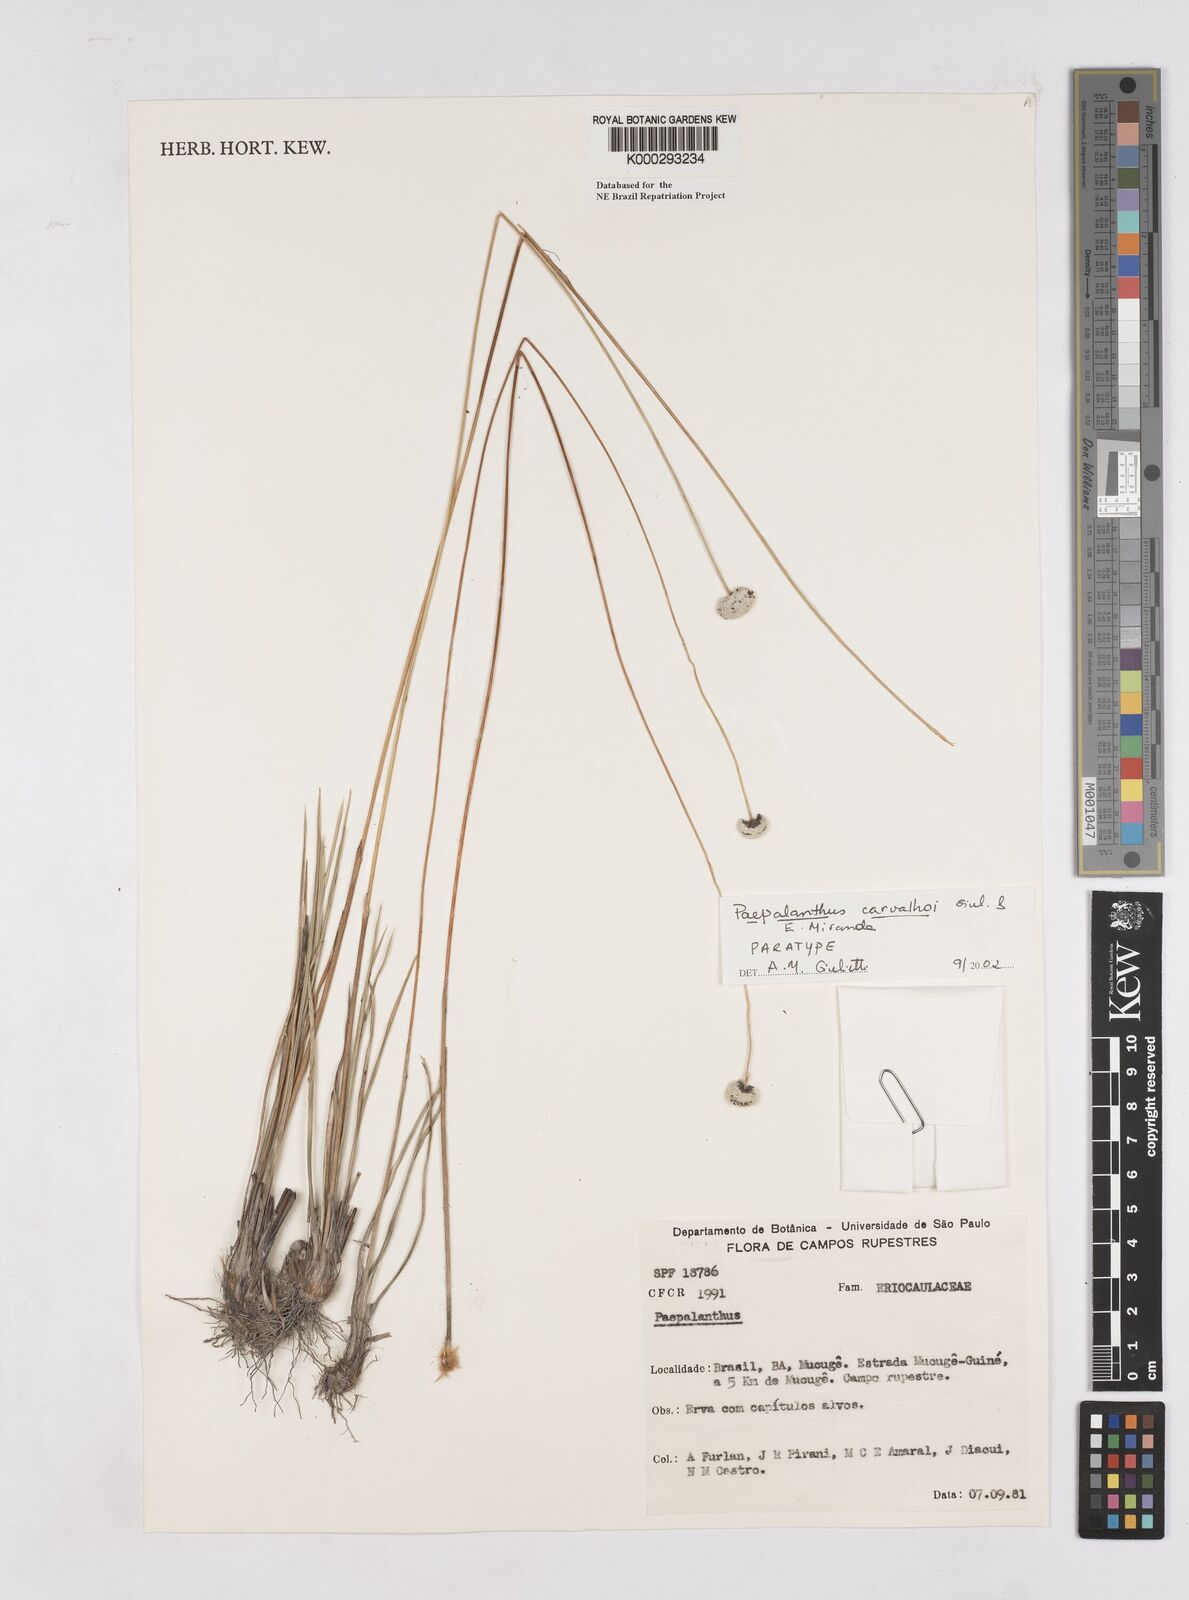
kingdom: Plantae
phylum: Tracheophyta
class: Liliopsida
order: Poales
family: Eriocaulaceae
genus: Paepalanthus
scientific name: Paepalanthus carvalhoi
